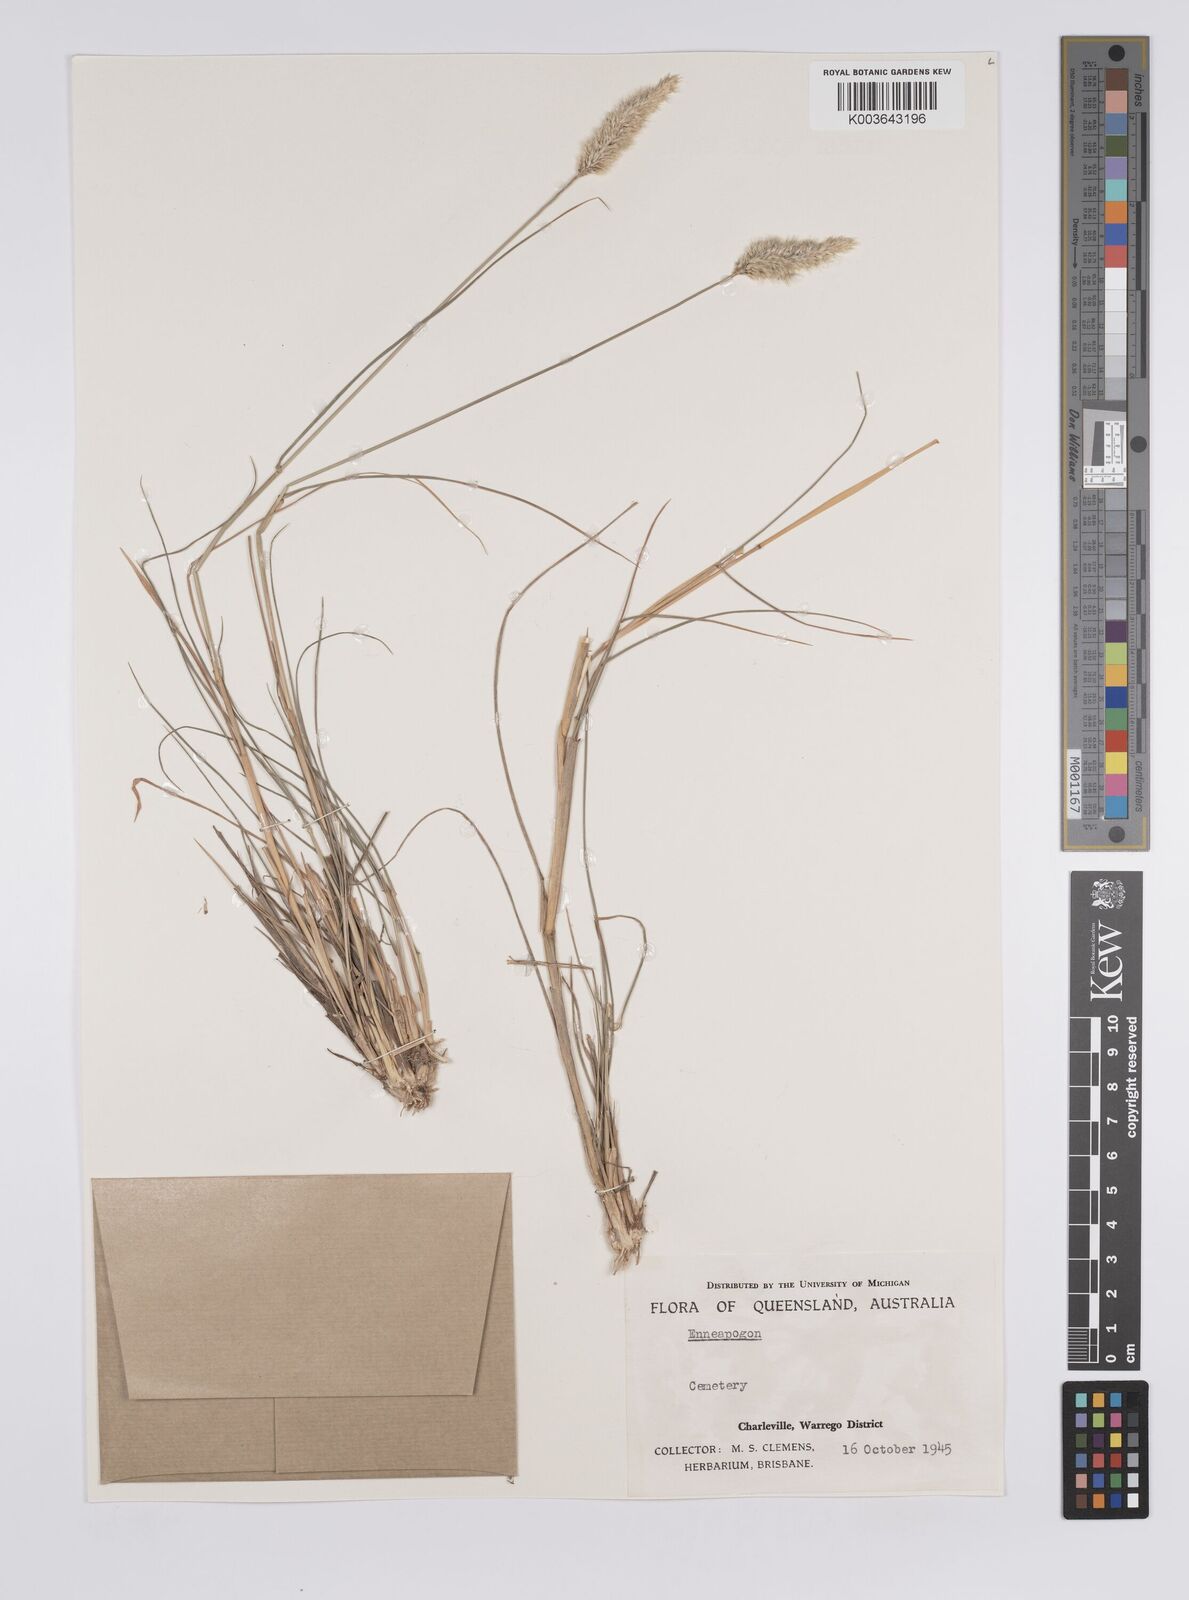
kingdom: Plantae
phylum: Tracheophyta
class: Liliopsida
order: Poales
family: Poaceae
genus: Enneapogon
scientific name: Enneapogon
